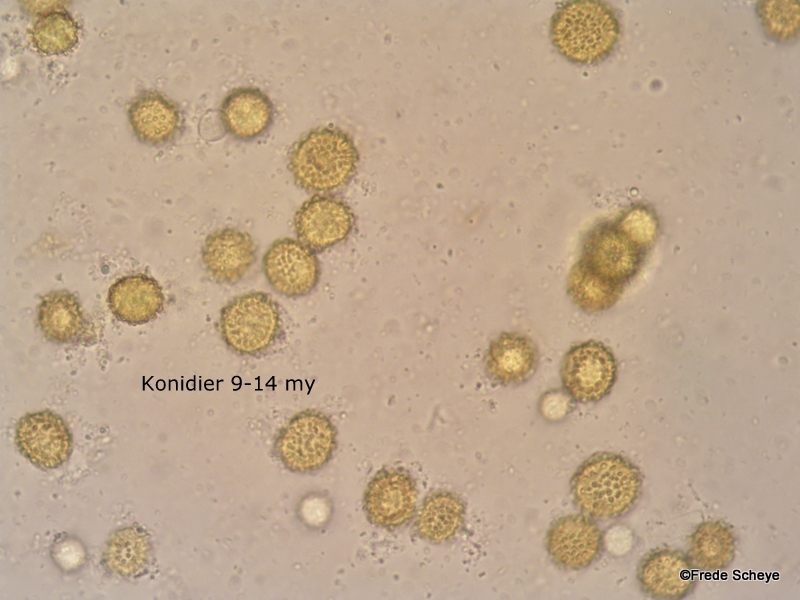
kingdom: Fungi
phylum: Ascomycota
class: Sordariomycetes
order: Hypocreales
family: Hypocreaceae
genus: Hypomyces
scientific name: Hypomyces microspermus
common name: dværgrørhat-snylteskorpe
